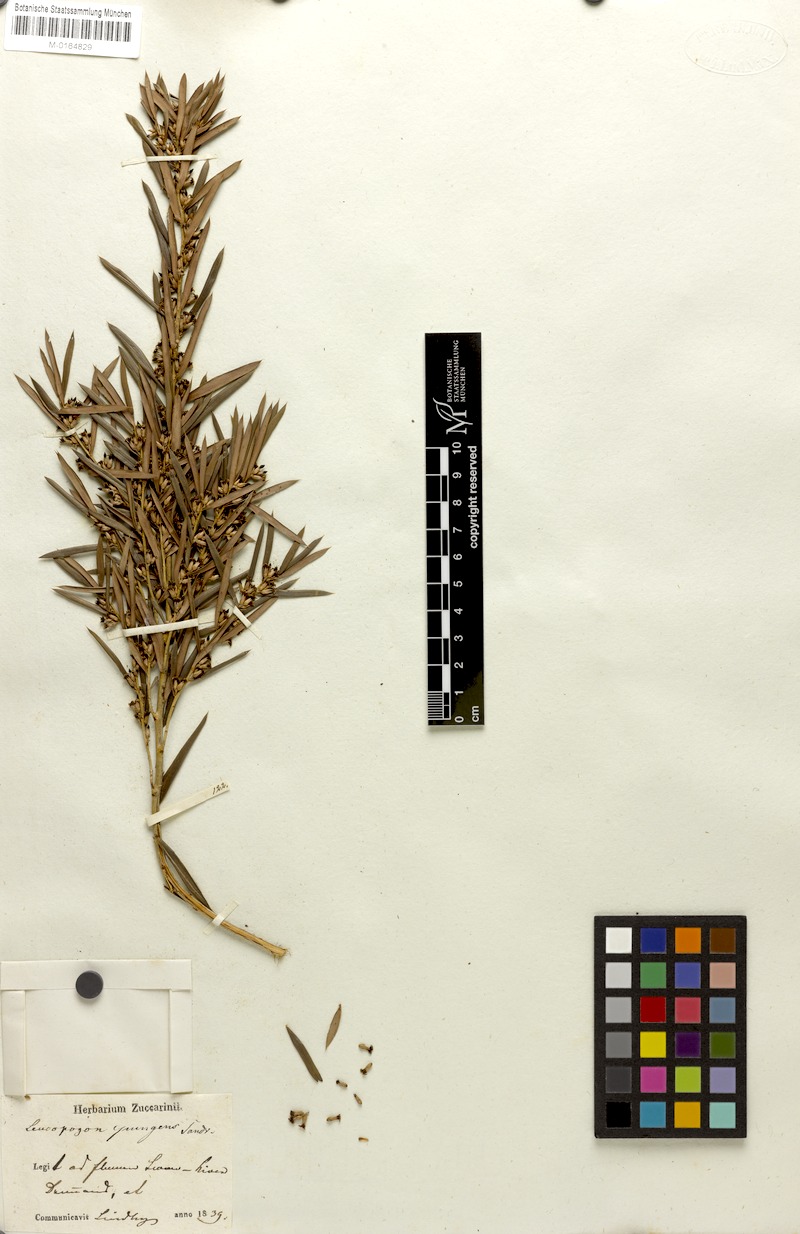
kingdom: Plantae
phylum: Tracheophyta
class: Magnoliopsida
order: Ericales
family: Ericaceae
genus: Styphelia
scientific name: Styphelia propinqua
